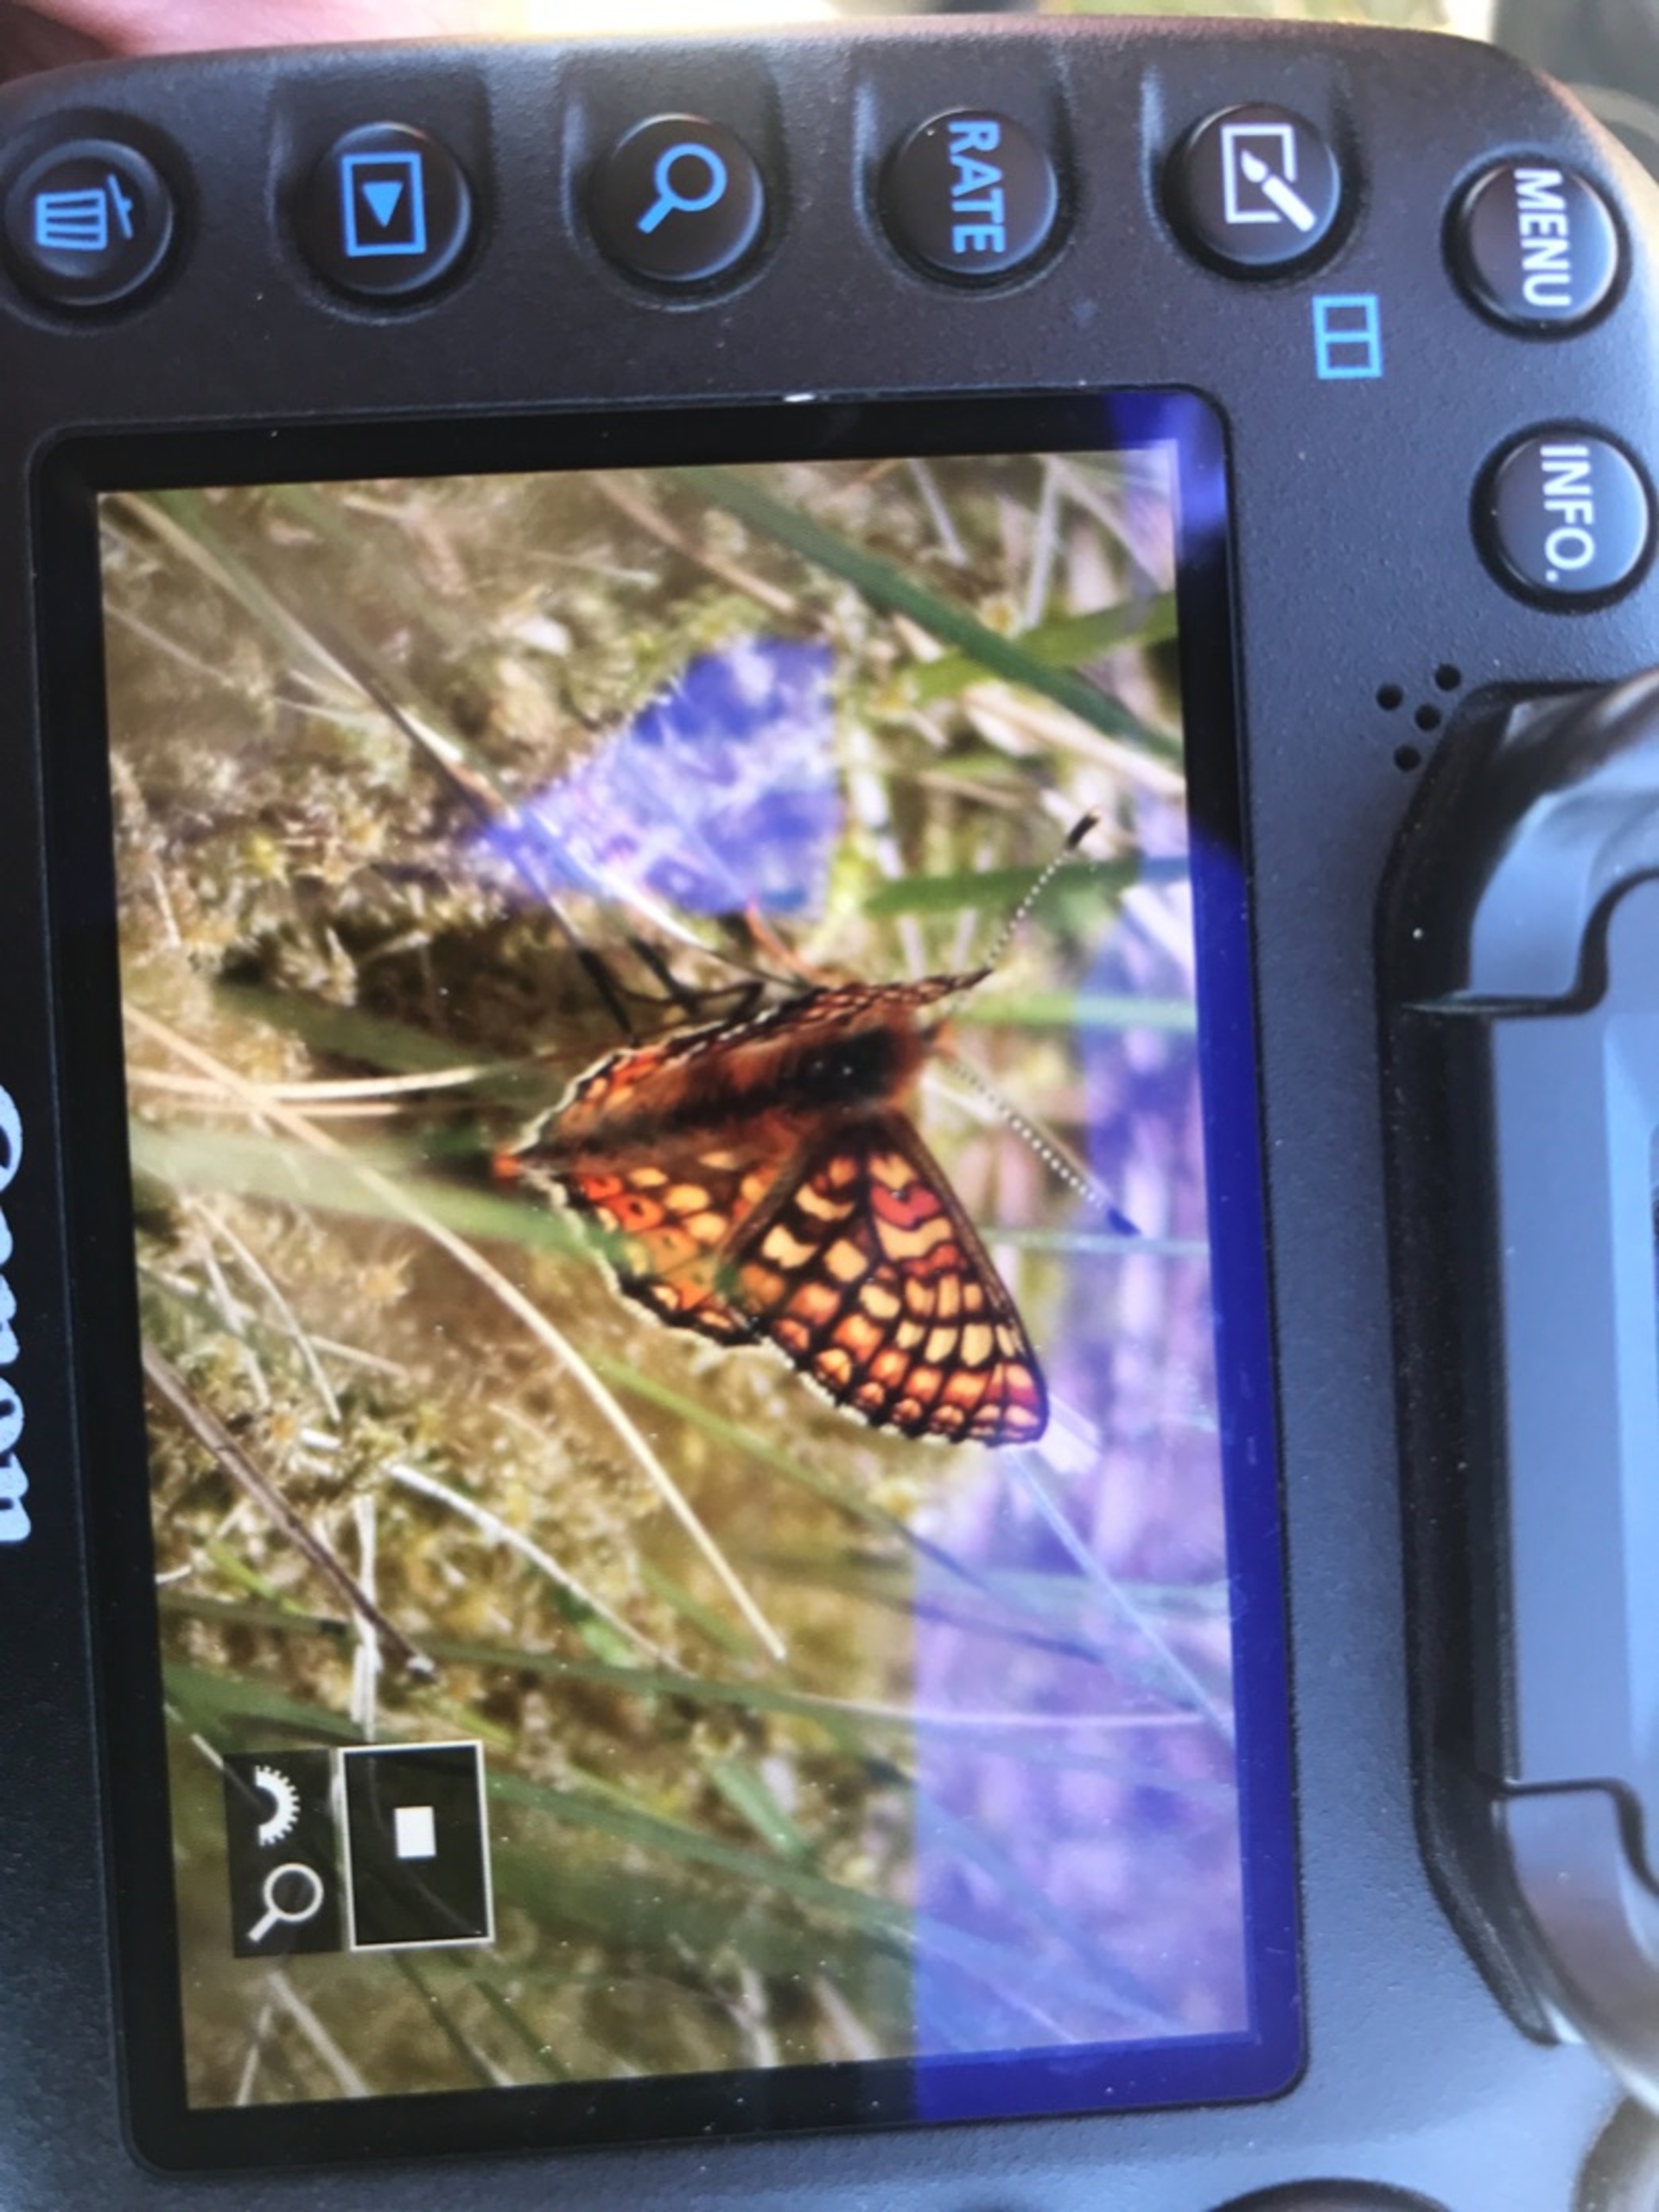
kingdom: Animalia
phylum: Arthropoda
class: Insecta
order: Lepidoptera
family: Nymphalidae
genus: Euphydryas
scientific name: Euphydryas aurinia
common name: Hedepletvinge
